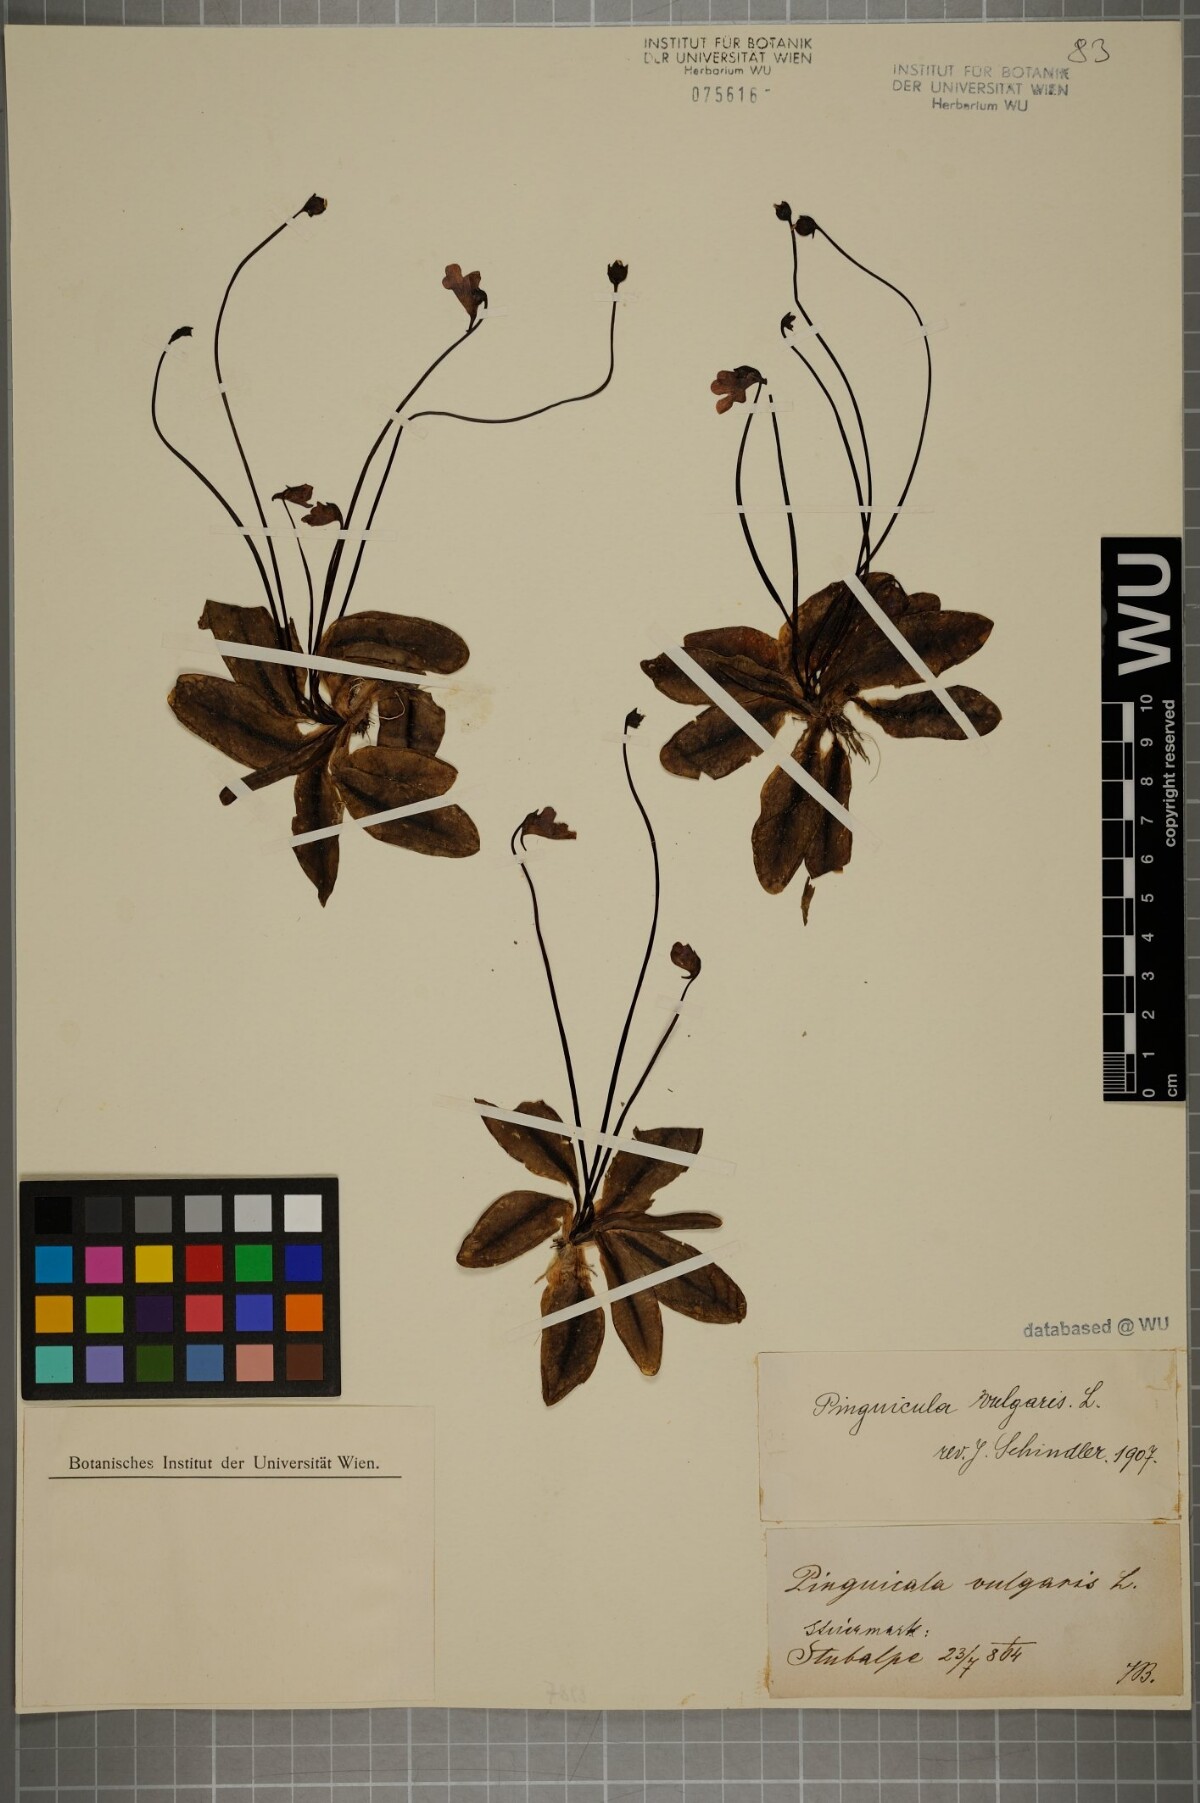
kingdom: Plantae
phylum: Tracheophyta
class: Magnoliopsida
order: Lamiales
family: Lentibulariaceae
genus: Pinguicula
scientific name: Pinguicula vulgaris
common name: Common butterwort
